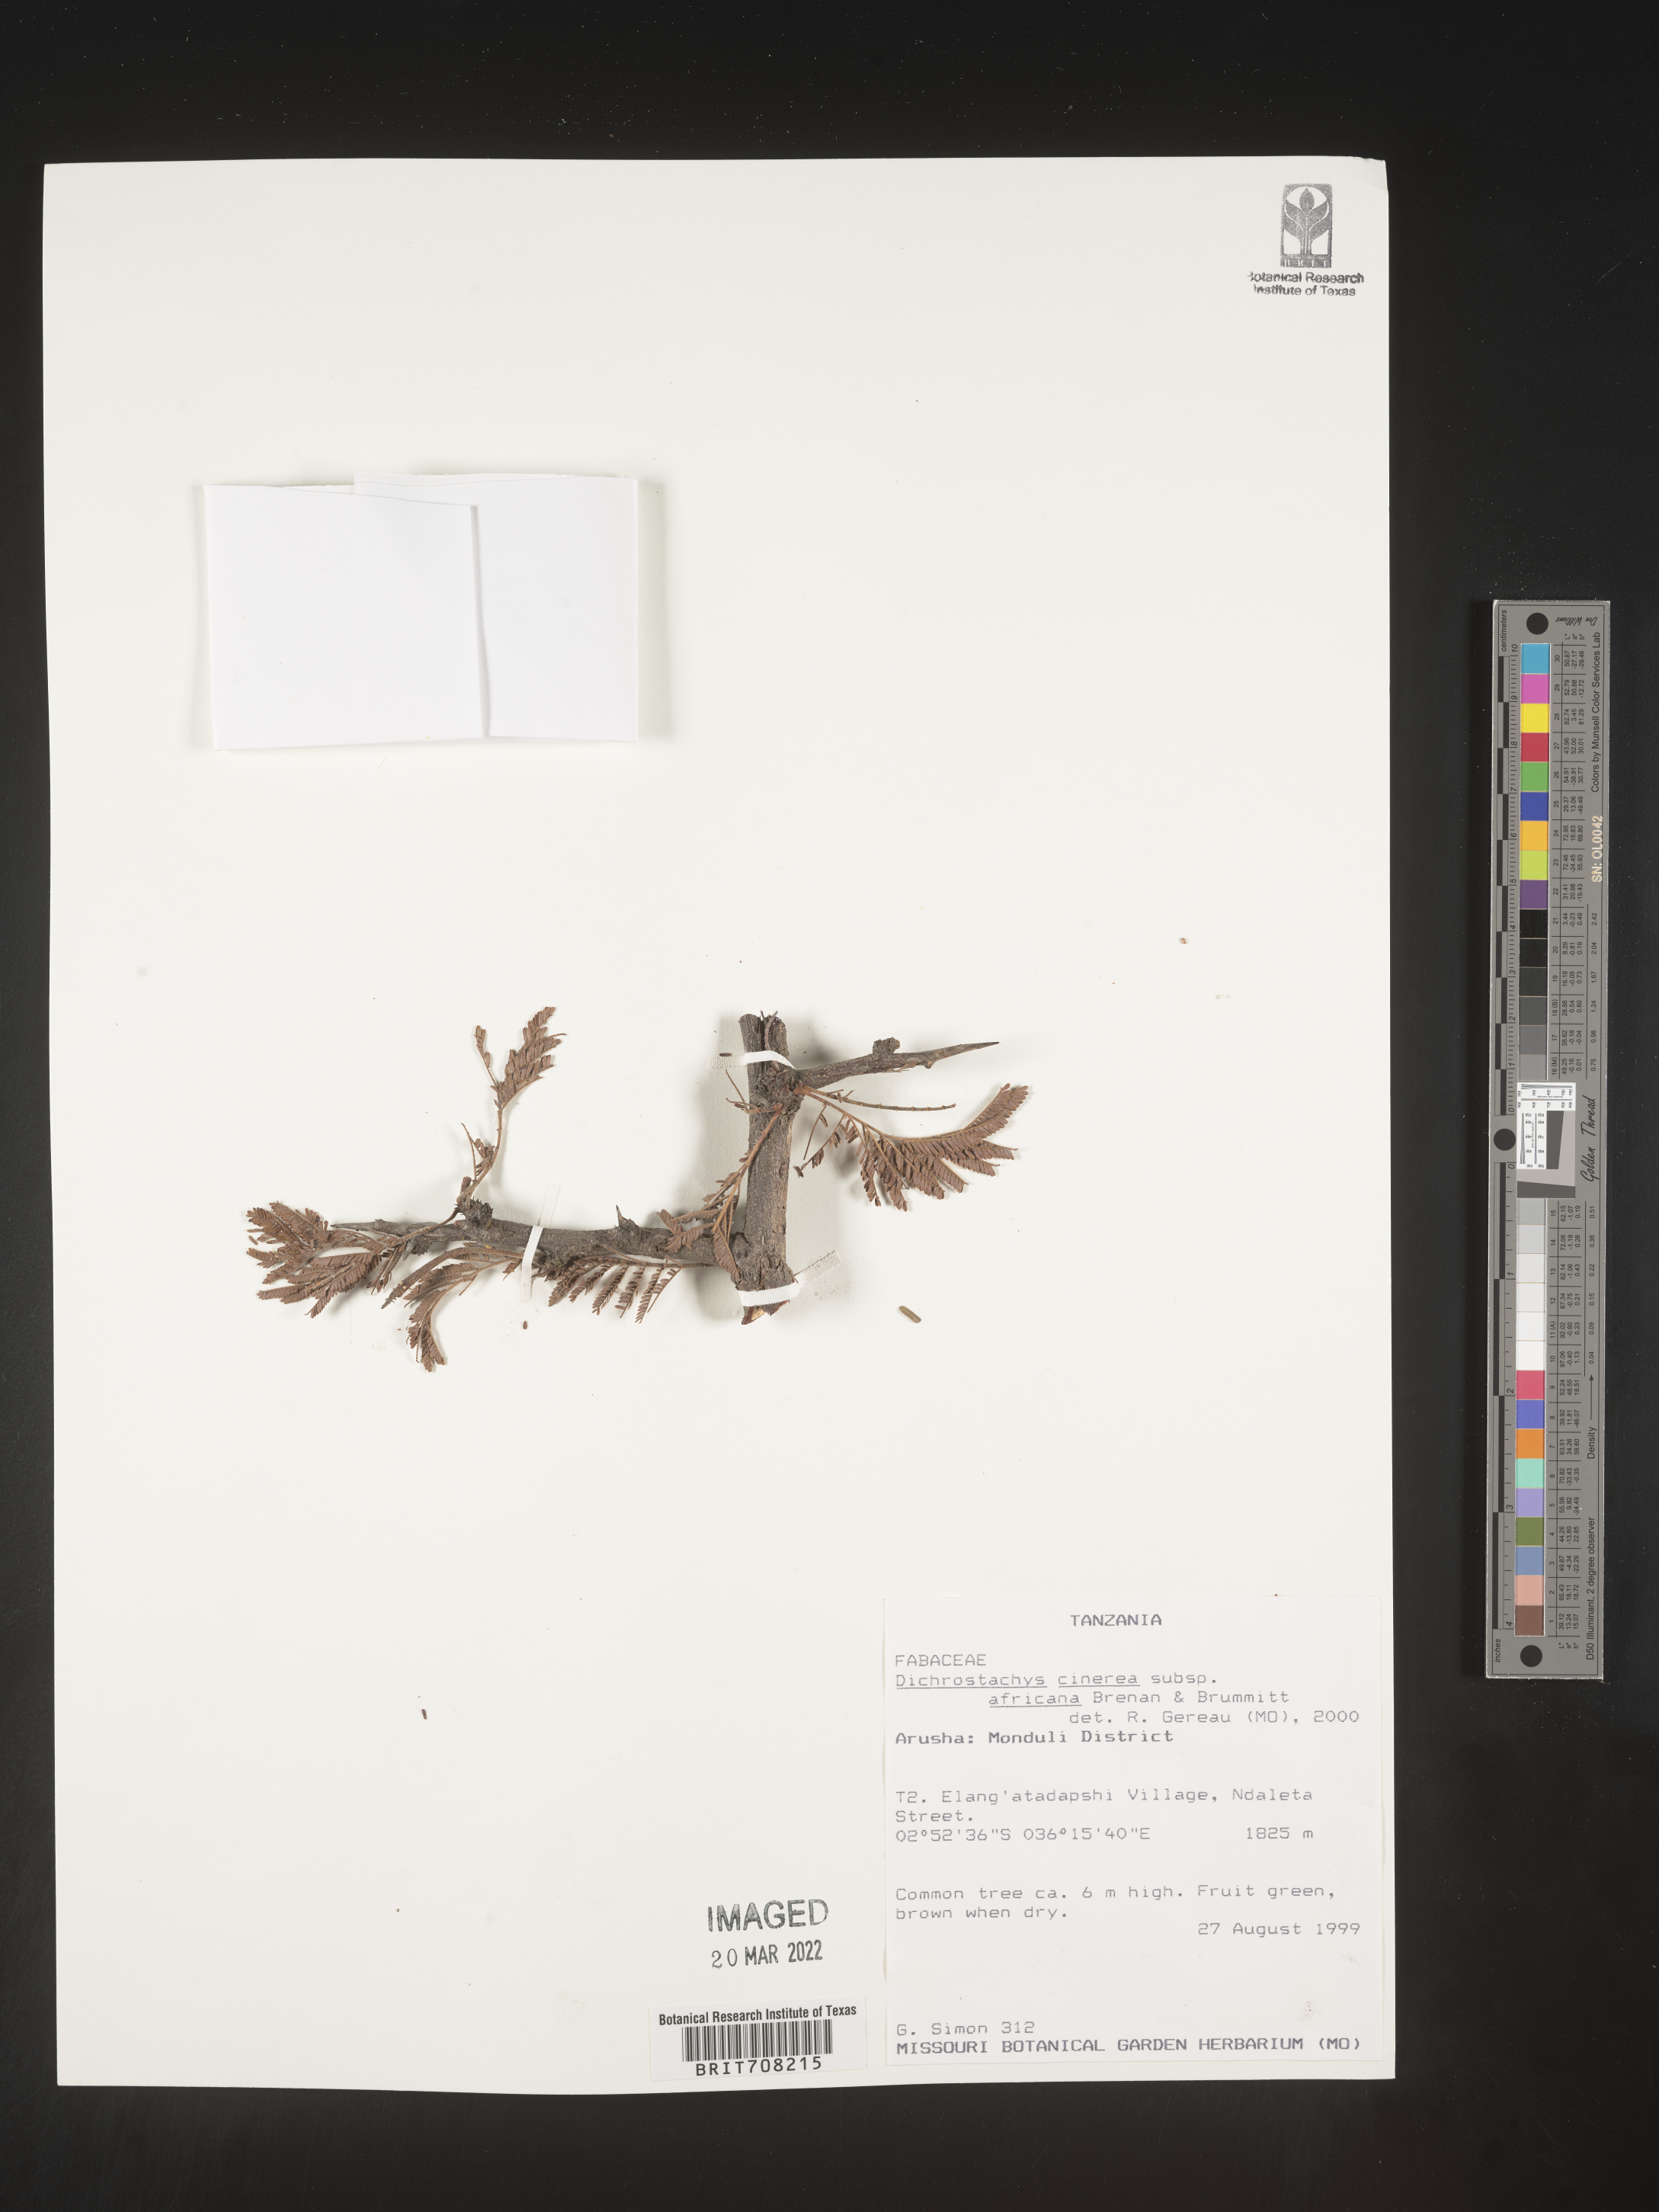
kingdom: Plantae
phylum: Tracheophyta
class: Magnoliopsida
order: Fabales
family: Fabaceae
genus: Dichrostachys
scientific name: Dichrostachys
